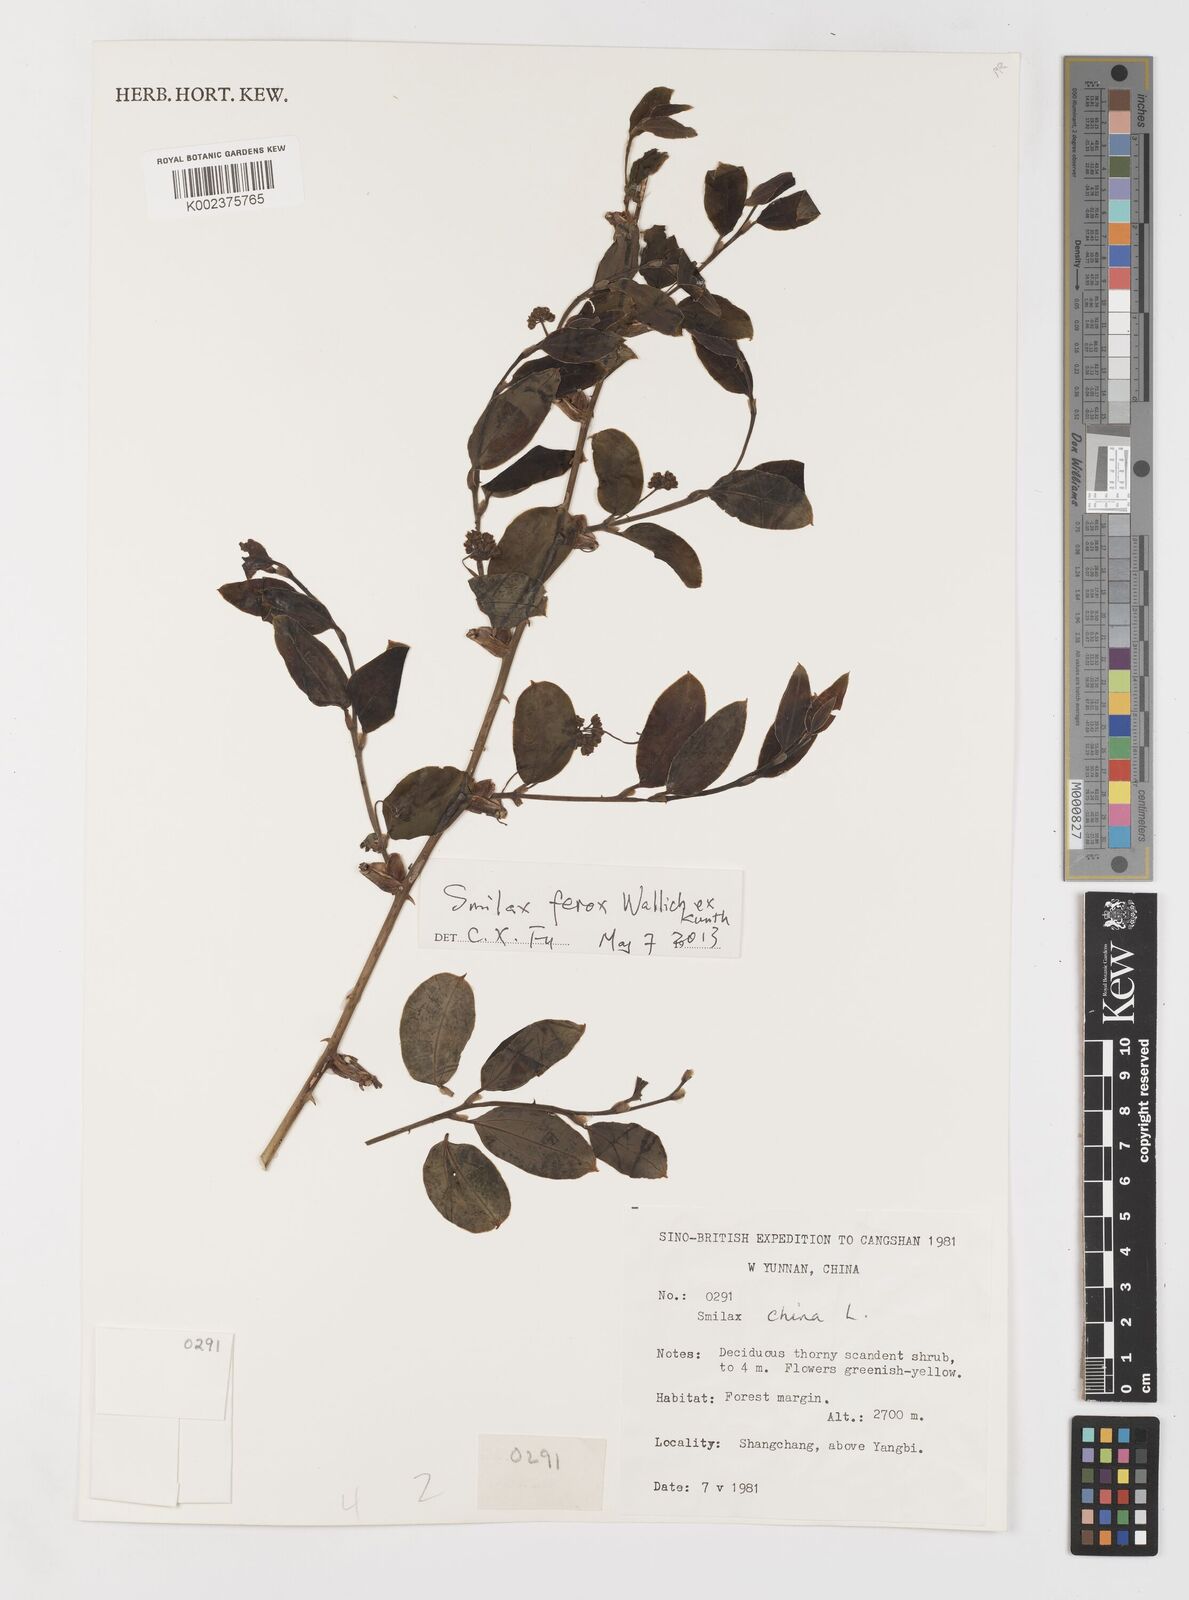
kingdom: Plantae
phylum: Tracheophyta
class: Liliopsida
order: Liliales
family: Smilacaceae
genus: Smilax
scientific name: Smilax china
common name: Chinaroot
